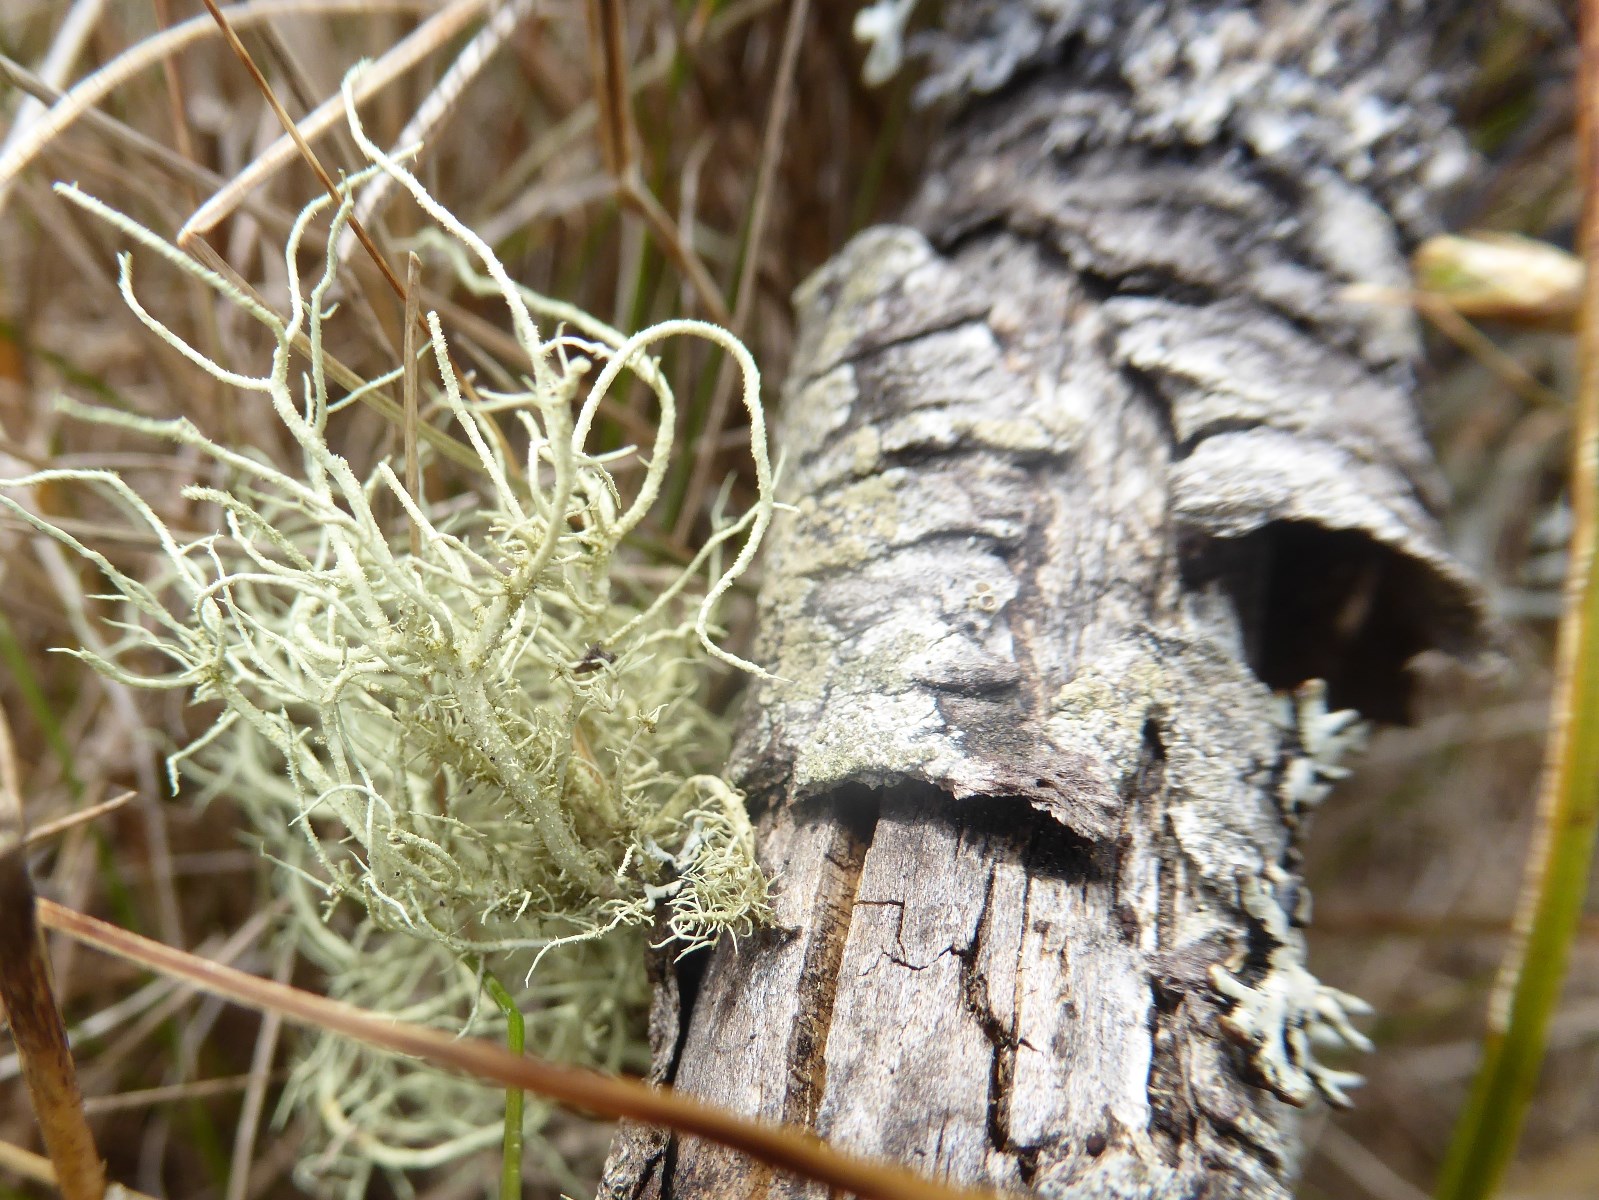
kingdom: Fungi
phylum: Ascomycota
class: Lecanoromycetes
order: Lecanorales
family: Parmeliaceae
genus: Usnea
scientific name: Usnea hirta
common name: liden skæglav
